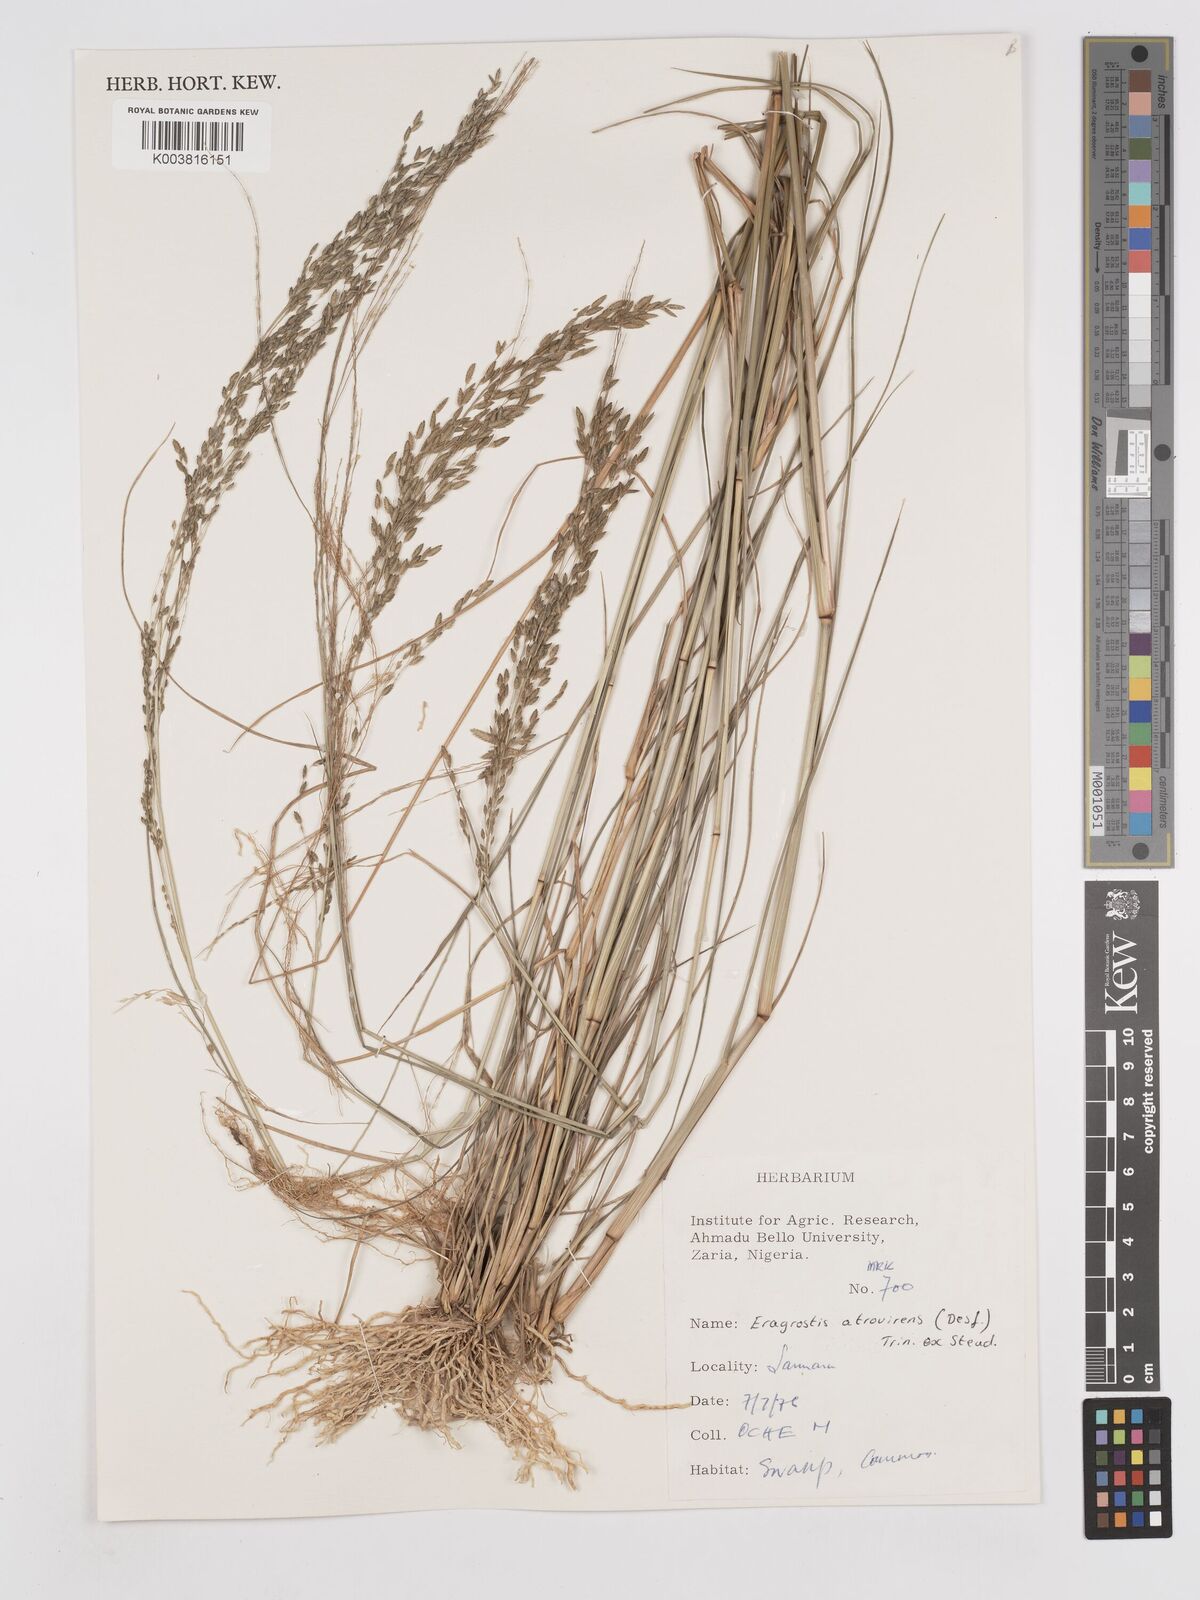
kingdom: Plantae
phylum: Tracheophyta
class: Liliopsida
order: Poales
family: Poaceae
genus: Eragrostis
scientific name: Eragrostis atrovirens
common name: Thalia lovegrass
